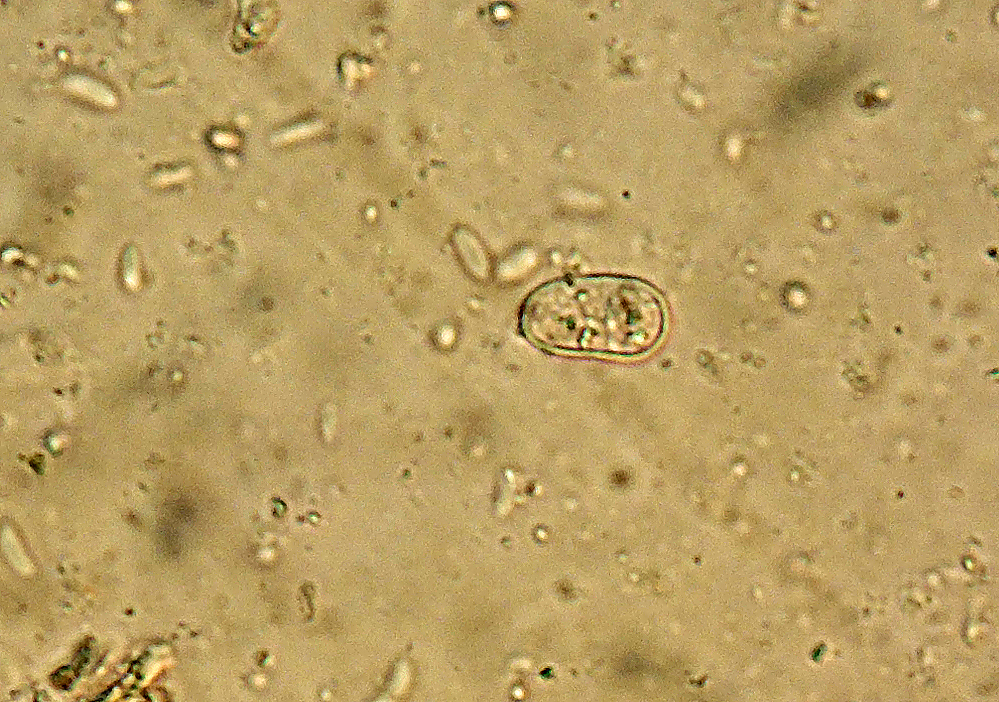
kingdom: Fungi
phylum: Basidiomycota
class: Agaricomycetes
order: Agaricales
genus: Dendrothele
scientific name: Dendrothele pachysterigmata
